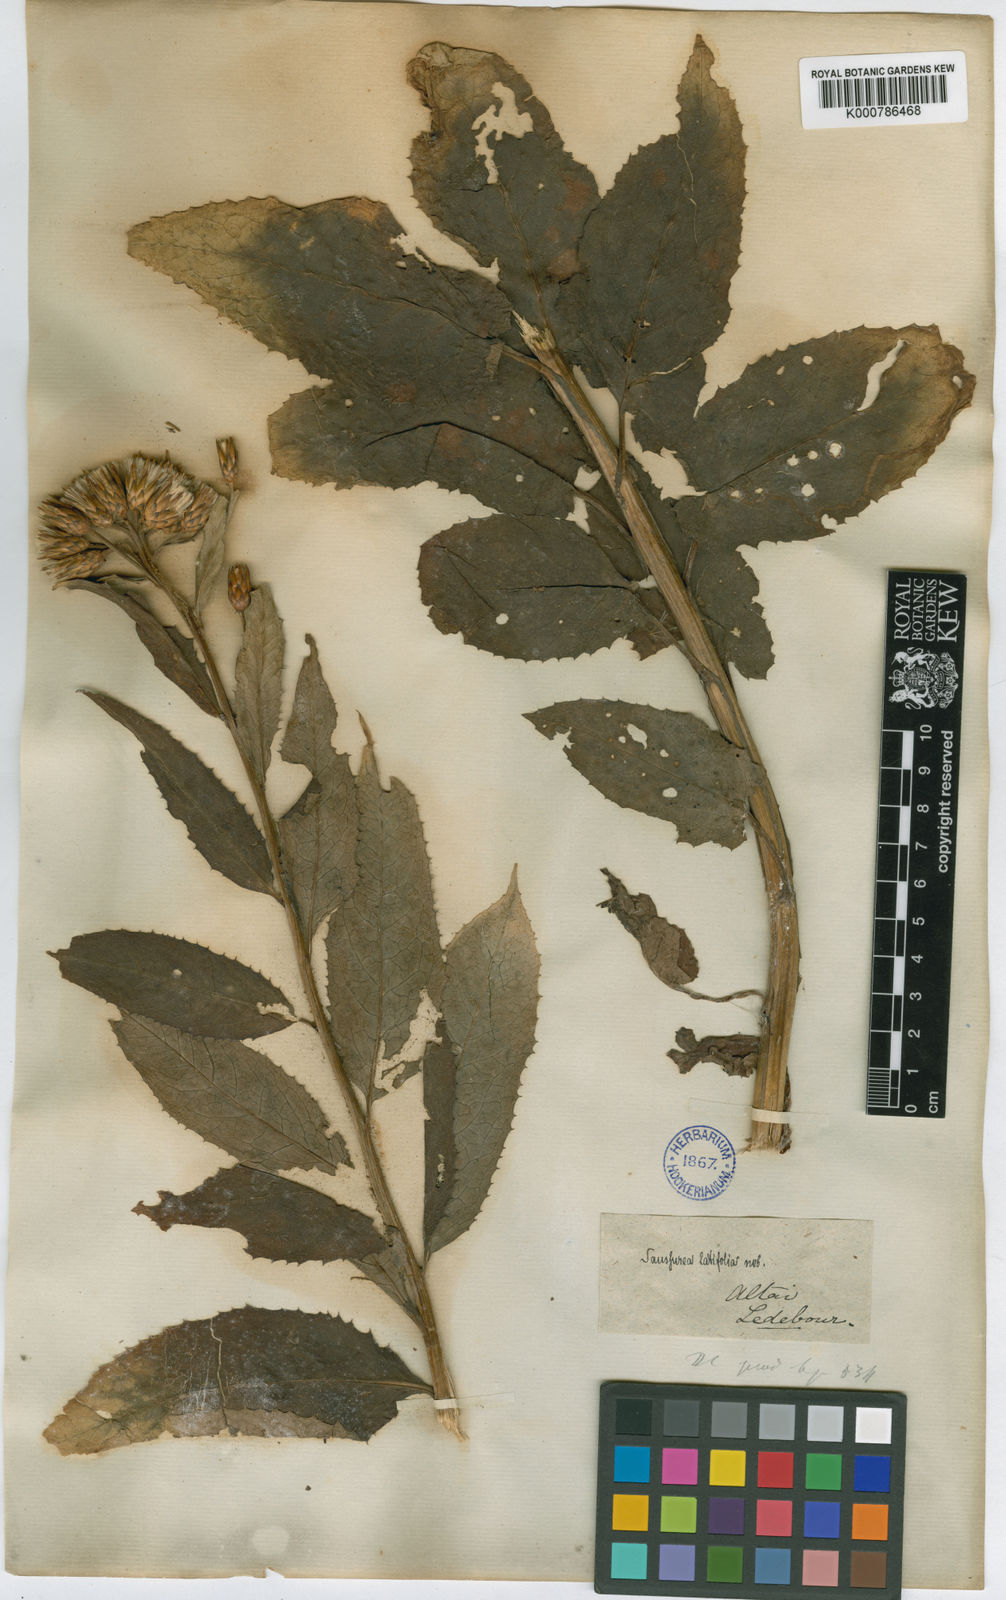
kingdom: Plantae
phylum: Tracheophyta
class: Magnoliopsida
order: Asterales
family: Asteraceae
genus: Saussurea
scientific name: Saussurea latifolia
